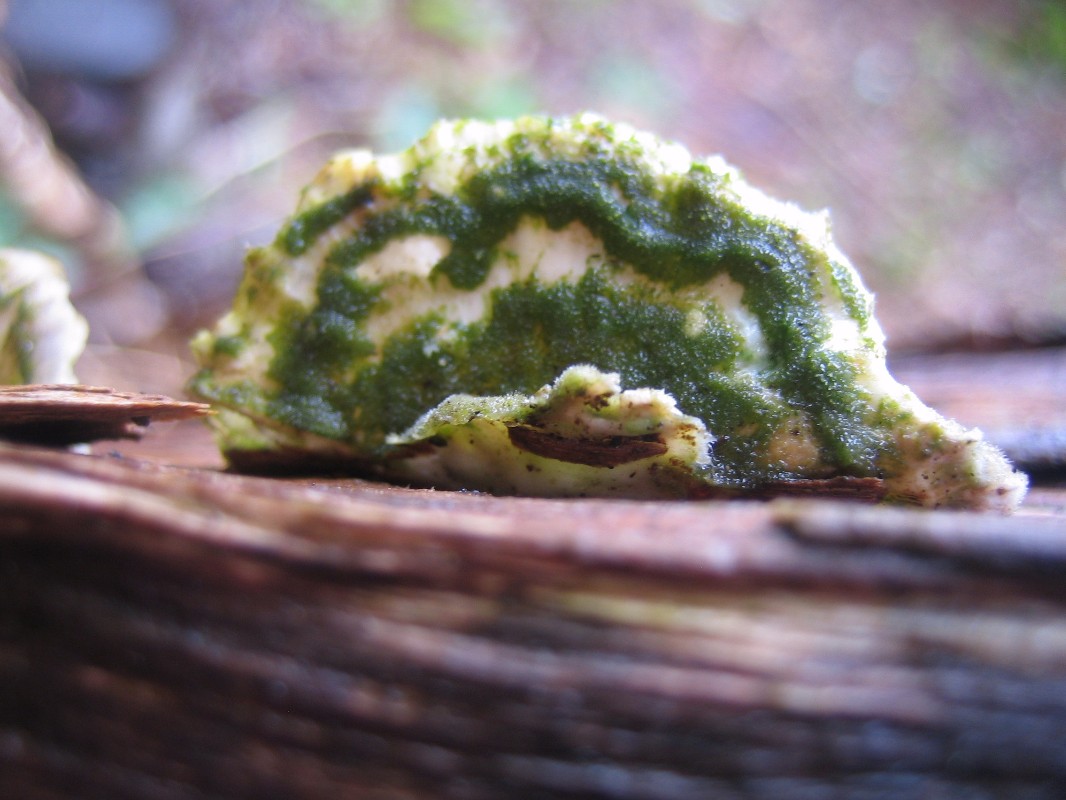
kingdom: Fungi
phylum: Basidiomycota
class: Agaricomycetes
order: Polyporales
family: Polyporaceae
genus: Trametes
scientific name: Trametes hirsuta
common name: håret læderporesvamp
